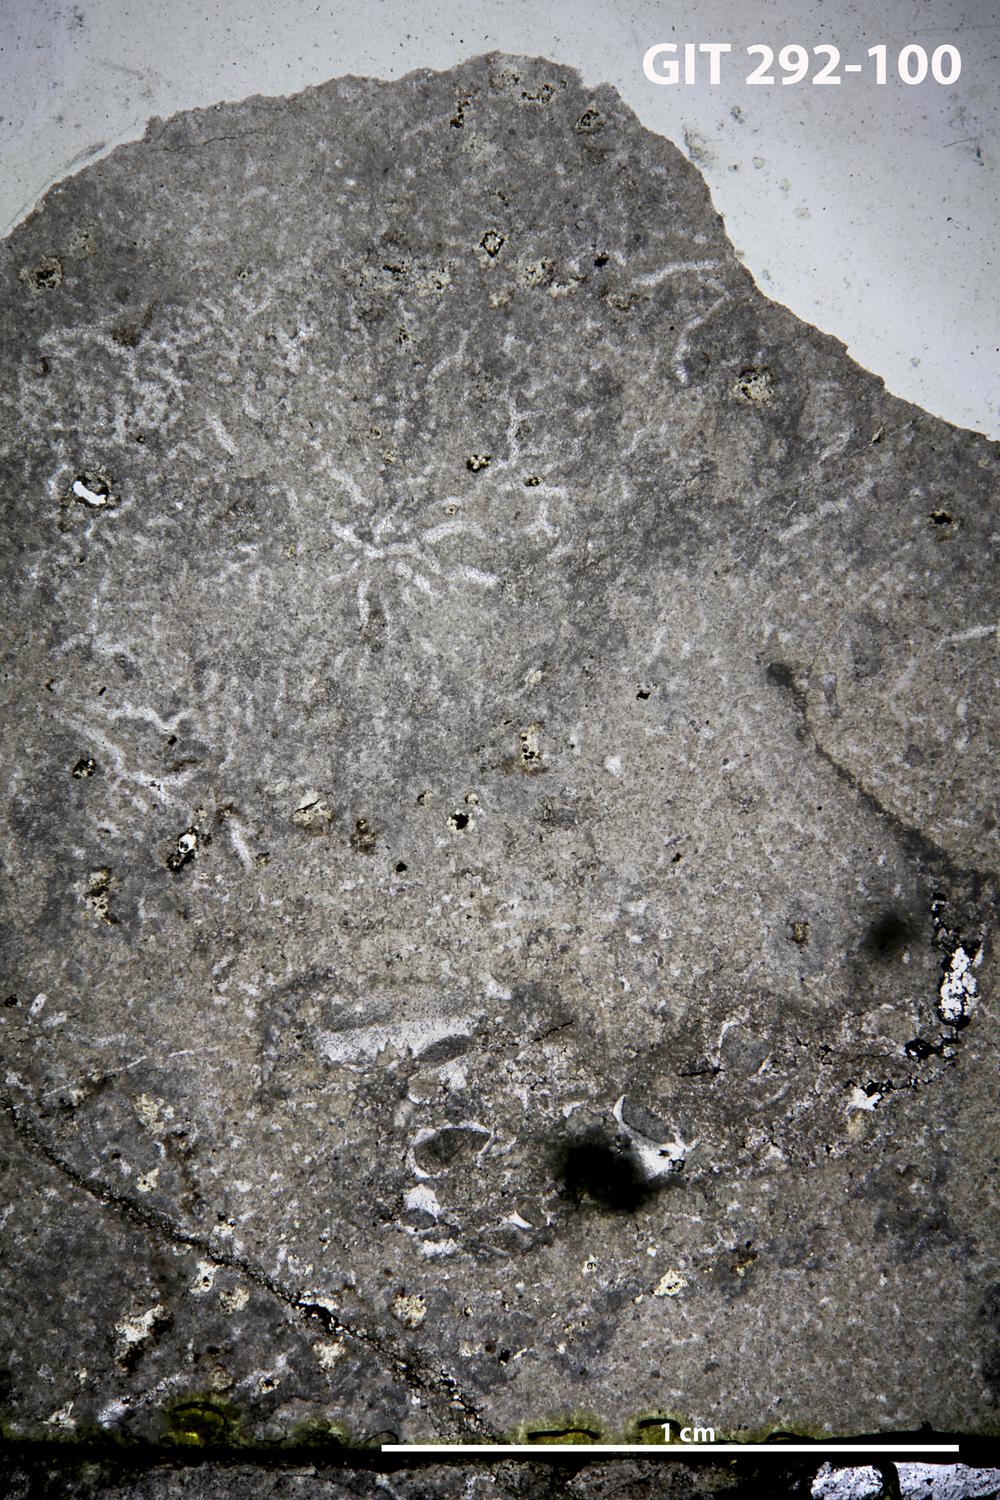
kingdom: Animalia
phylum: Porifera
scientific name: Porifera
